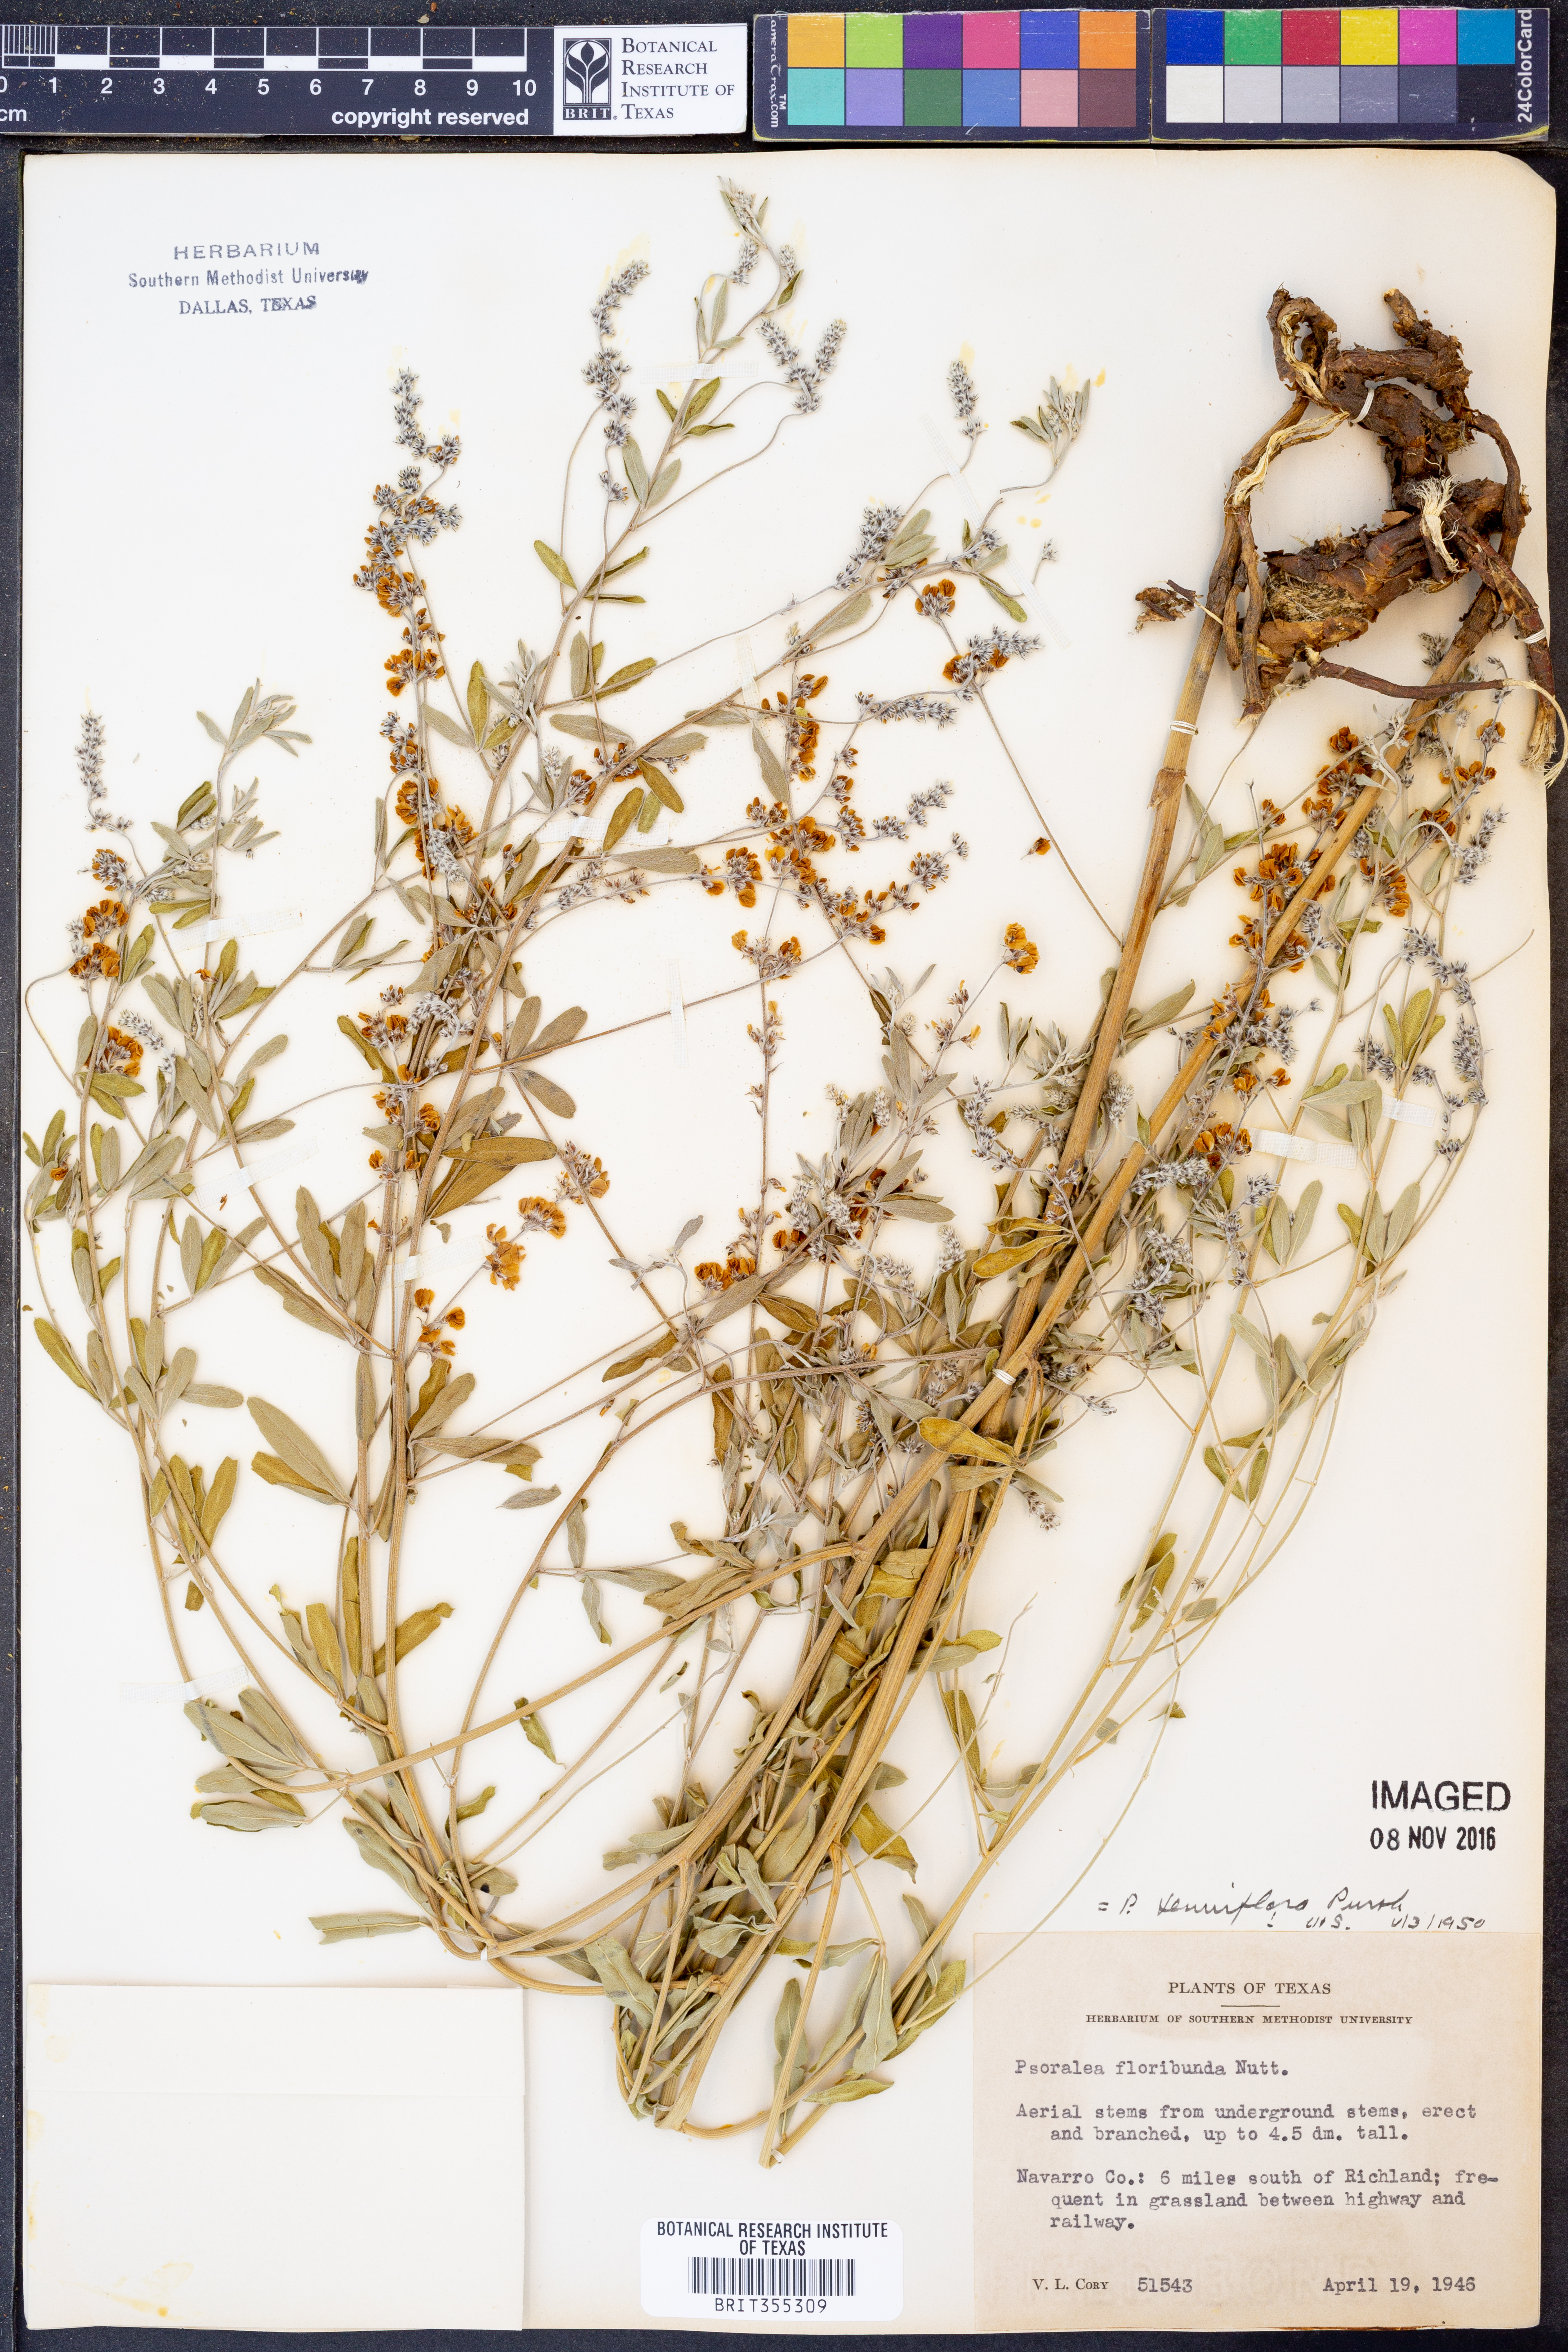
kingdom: Plantae
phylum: Tracheophyta
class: Magnoliopsida
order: Fabales
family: Fabaceae
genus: Pediomelum
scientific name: Pediomelum tenuiflorum
